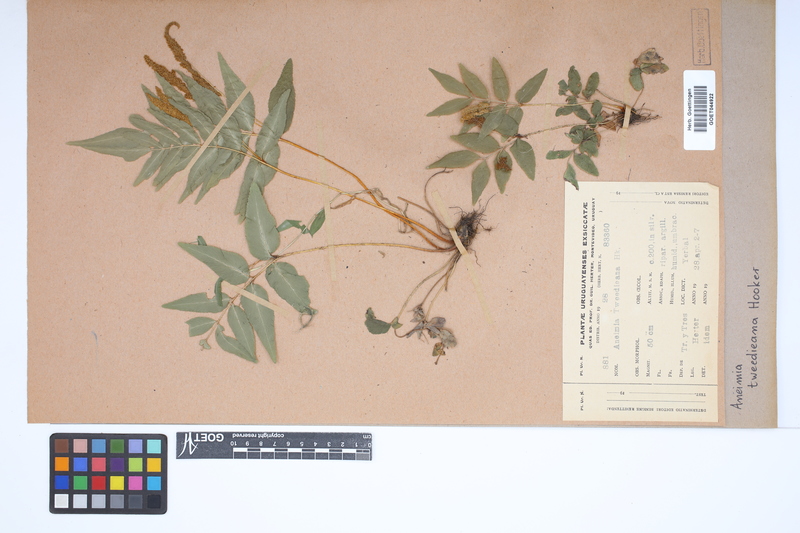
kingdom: Plantae
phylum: Tracheophyta
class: Polypodiopsida
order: Schizaeales
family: Anemiaceae
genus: Anemia
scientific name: Anemia phyllitidis
